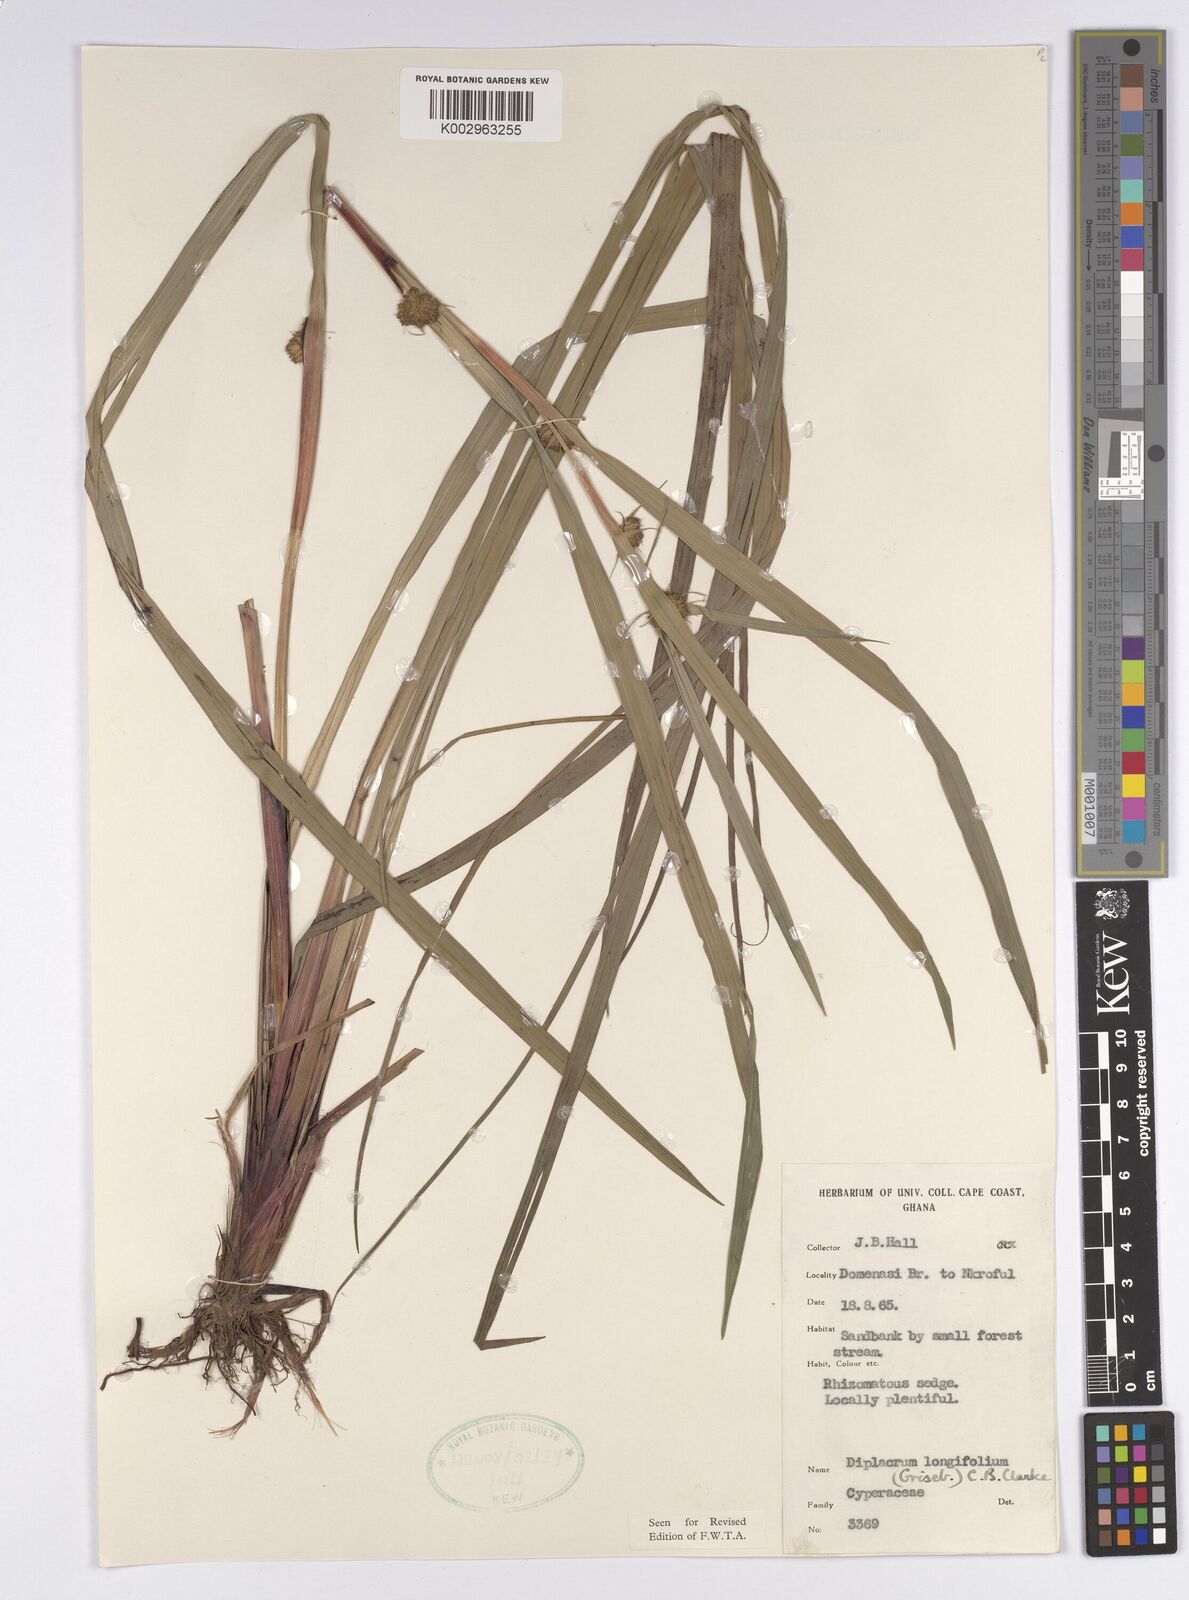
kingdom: Plantae
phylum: Tracheophyta
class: Liliopsida
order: Poales
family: Cyperaceae
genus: Diplacrum
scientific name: Diplacrum capitatum
